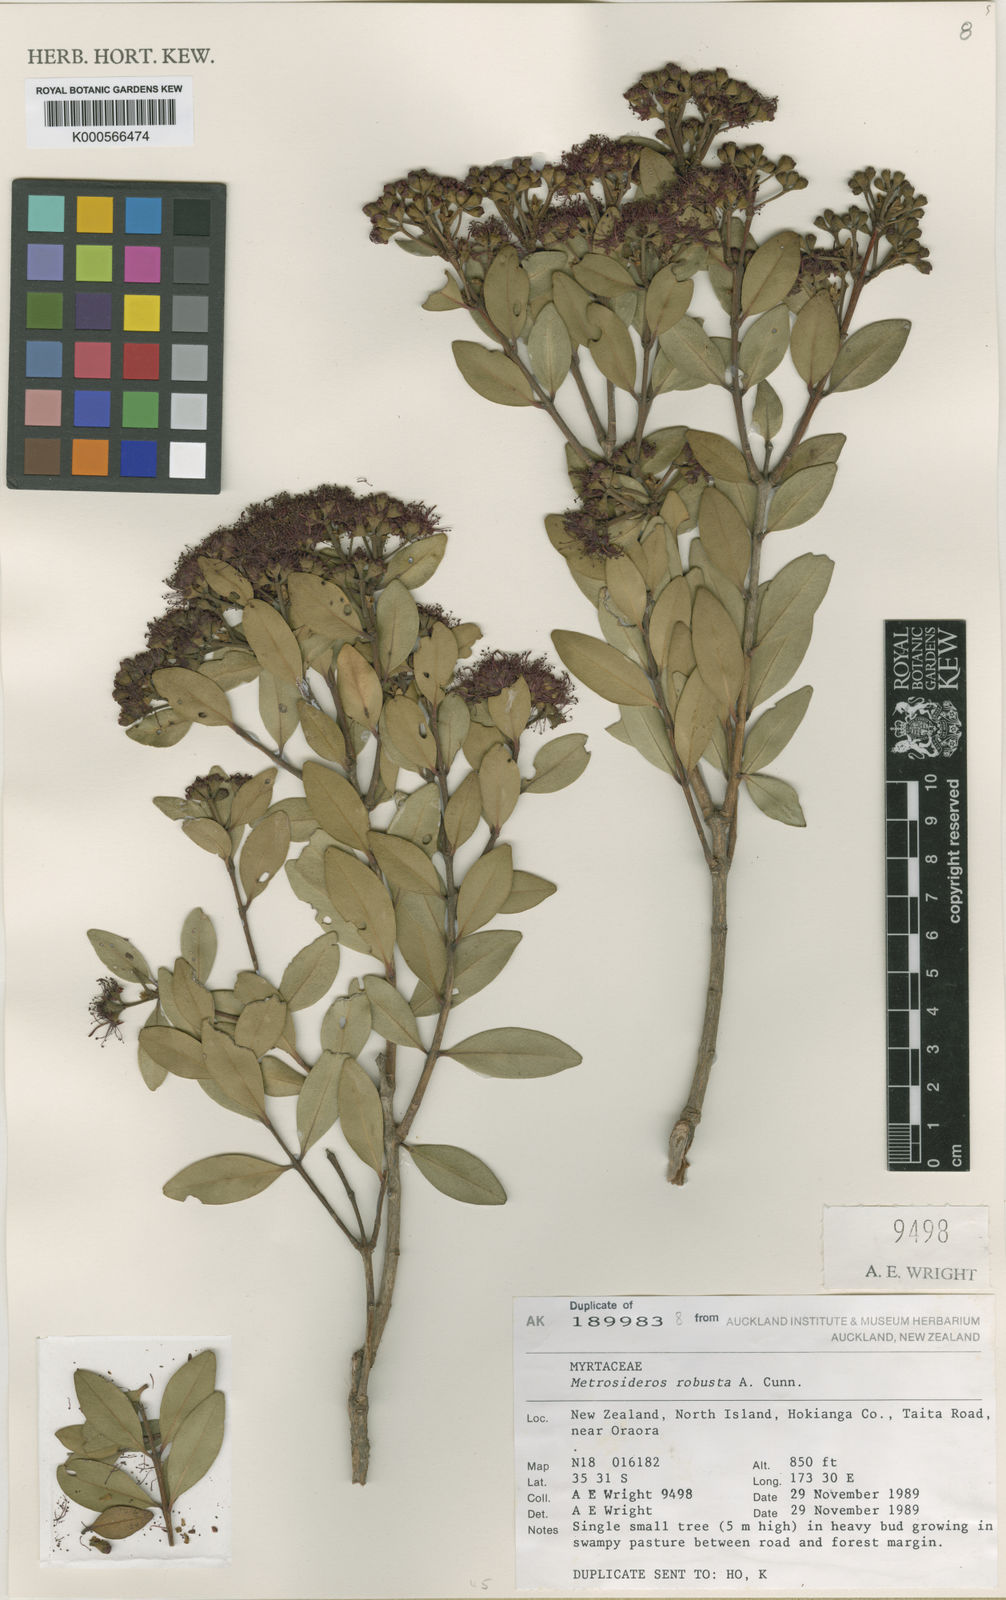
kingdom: Plantae
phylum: Tracheophyta
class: Magnoliopsida
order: Myrtales
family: Myrtaceae
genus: Metrosideros
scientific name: Metrosideros robusta
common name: Northern rata
